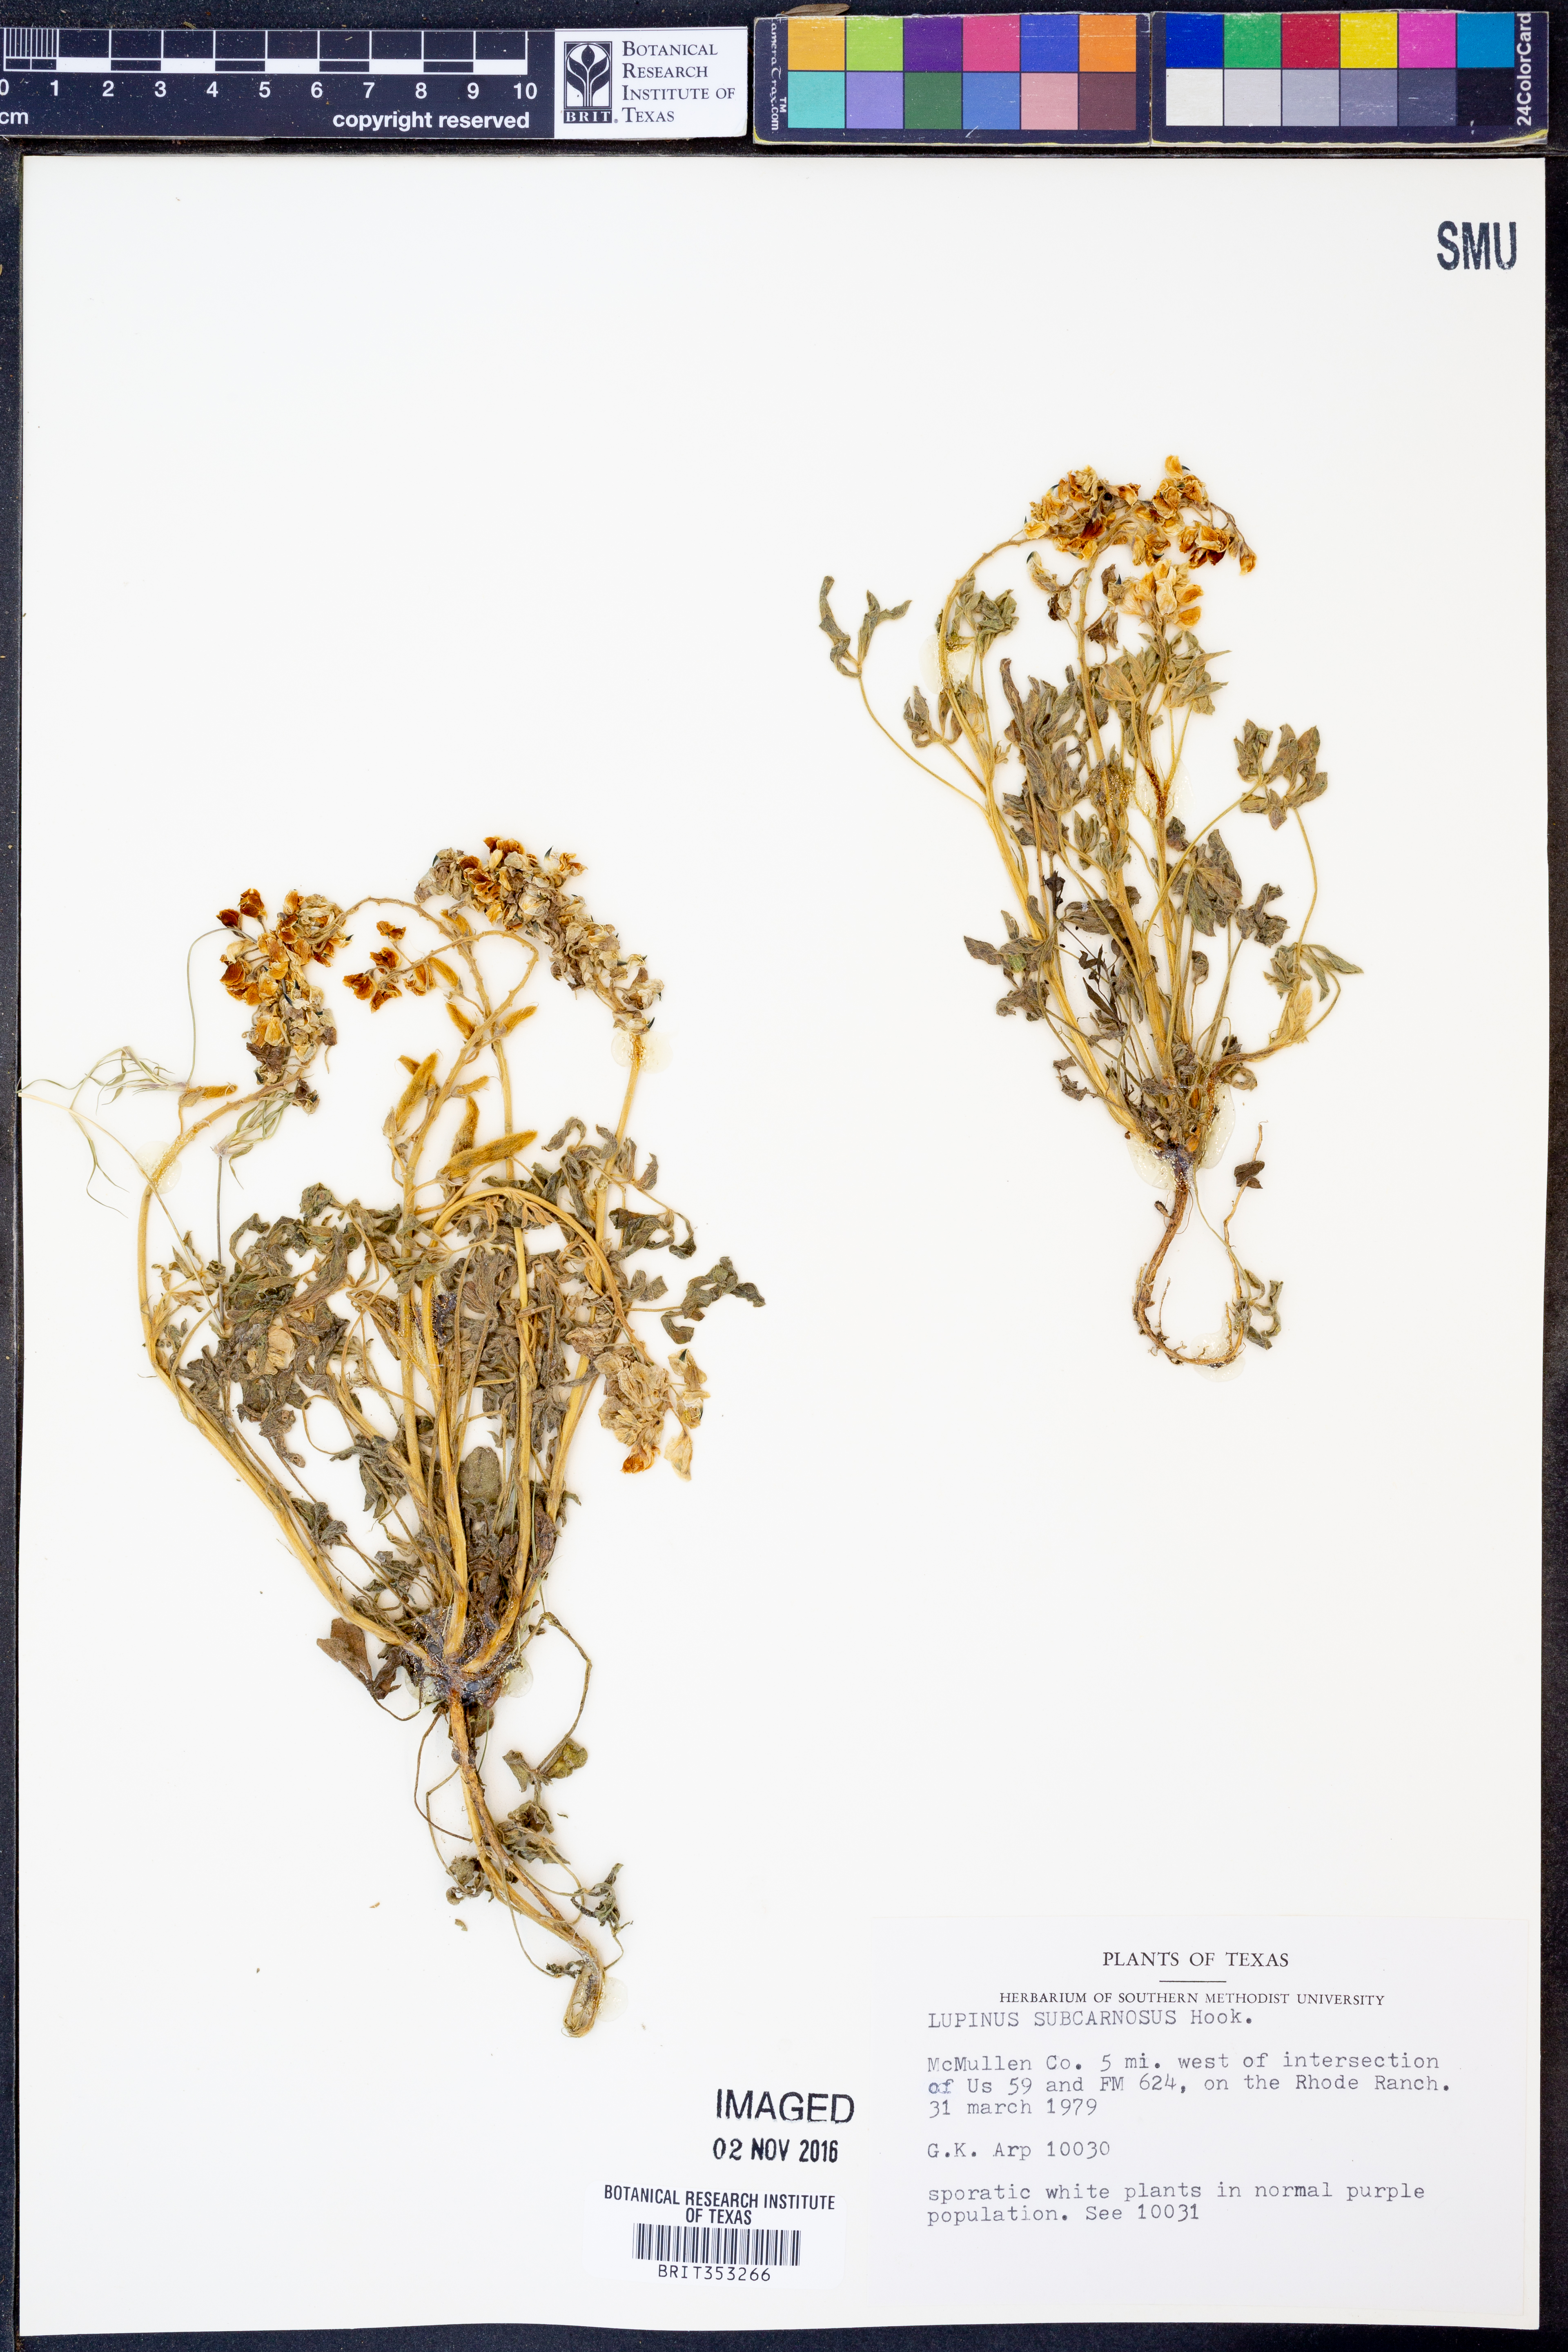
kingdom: Plantae
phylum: Tracheophyta
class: Magnoliopsida
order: Fabales
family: Fabaceae
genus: Lupinus
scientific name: Lupinus subcarnosus
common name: Texas bluebonnet
